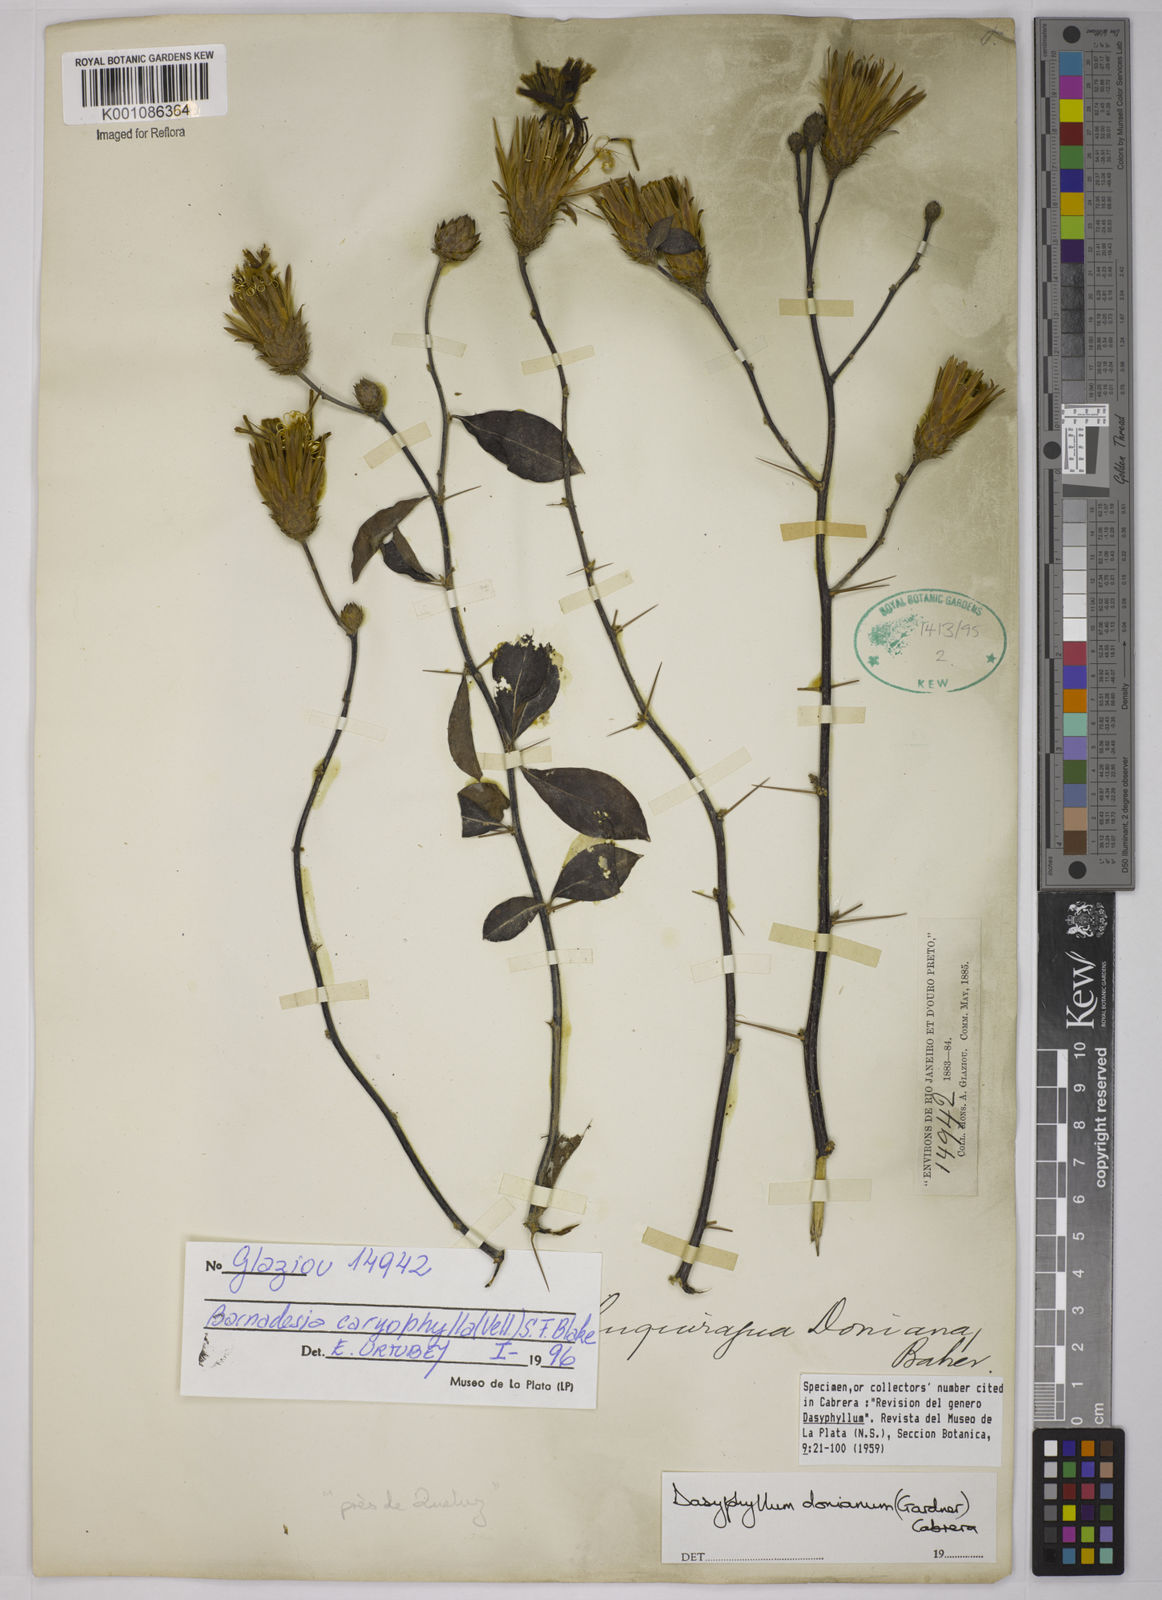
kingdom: Plantae
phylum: Tracheophyta
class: Magnoliopsida
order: Asterales
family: Asteraceae
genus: Barnadesia
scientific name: Barnadesia caryophylla
